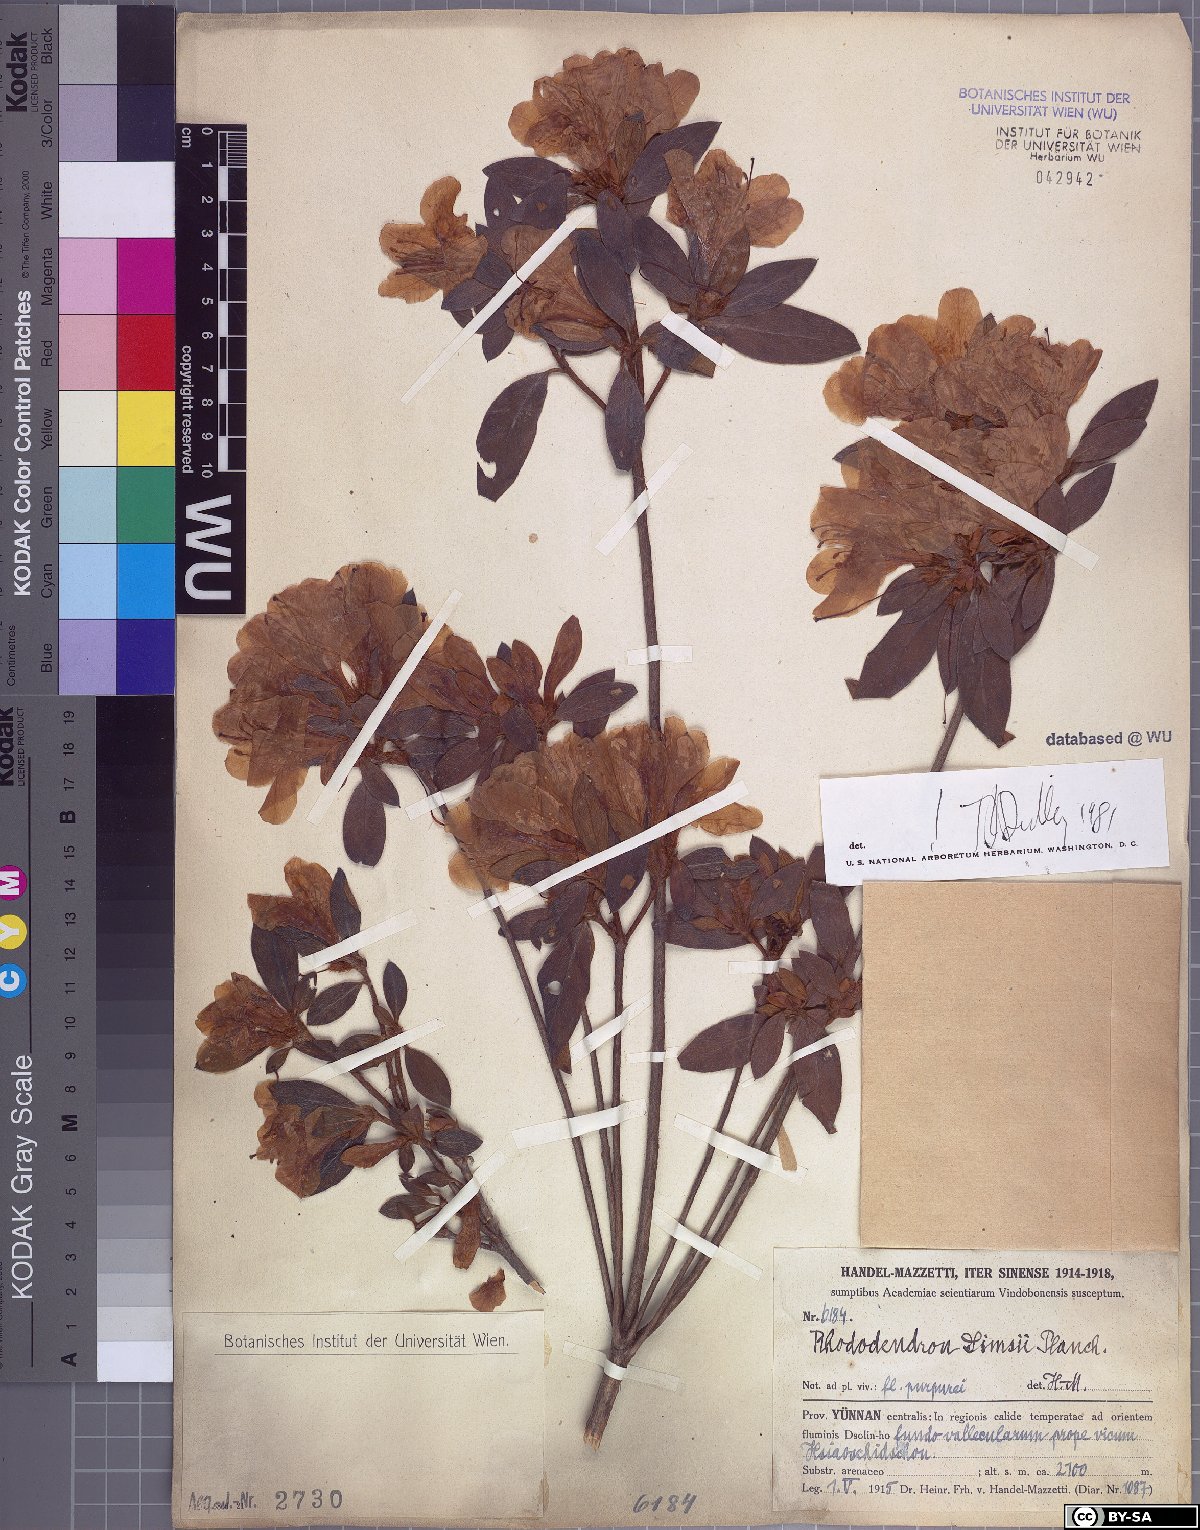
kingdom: Plantae
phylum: Tracheophyta
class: Magnoliopsida
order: Ericales
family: Ericaceae
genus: Rhododendron
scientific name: Rhododendron simsii
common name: Rhododendron
